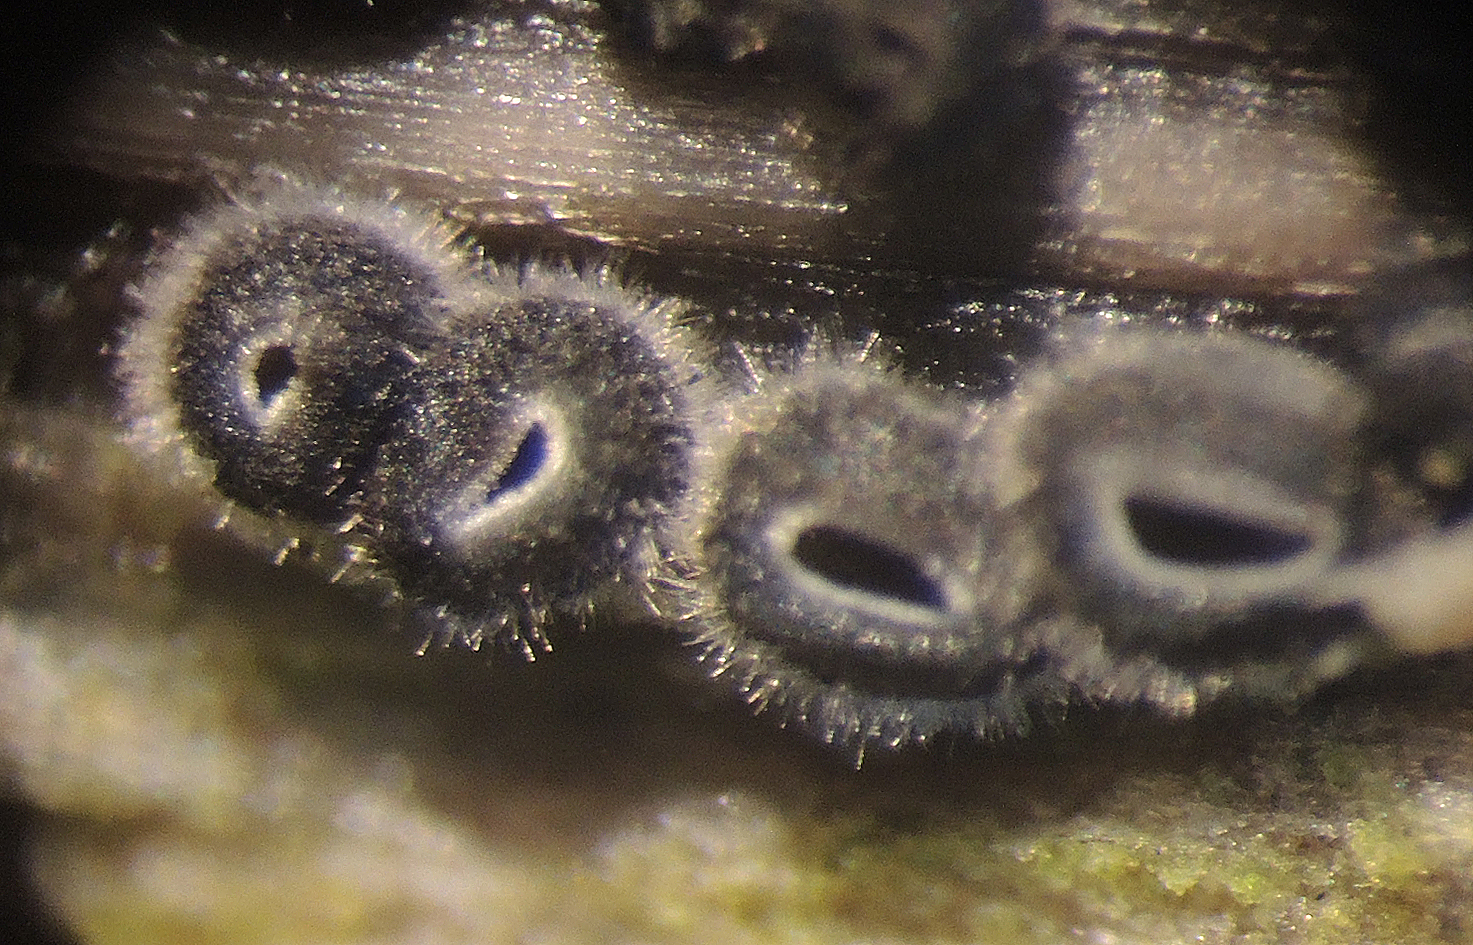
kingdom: Fungi
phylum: Ascomycota
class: Leotiomycetes
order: Helotiales
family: Ploettnerulaceae
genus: Pyrenopeziza
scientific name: Pyrenopeziza carduorum
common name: tidsel-kerneskive
